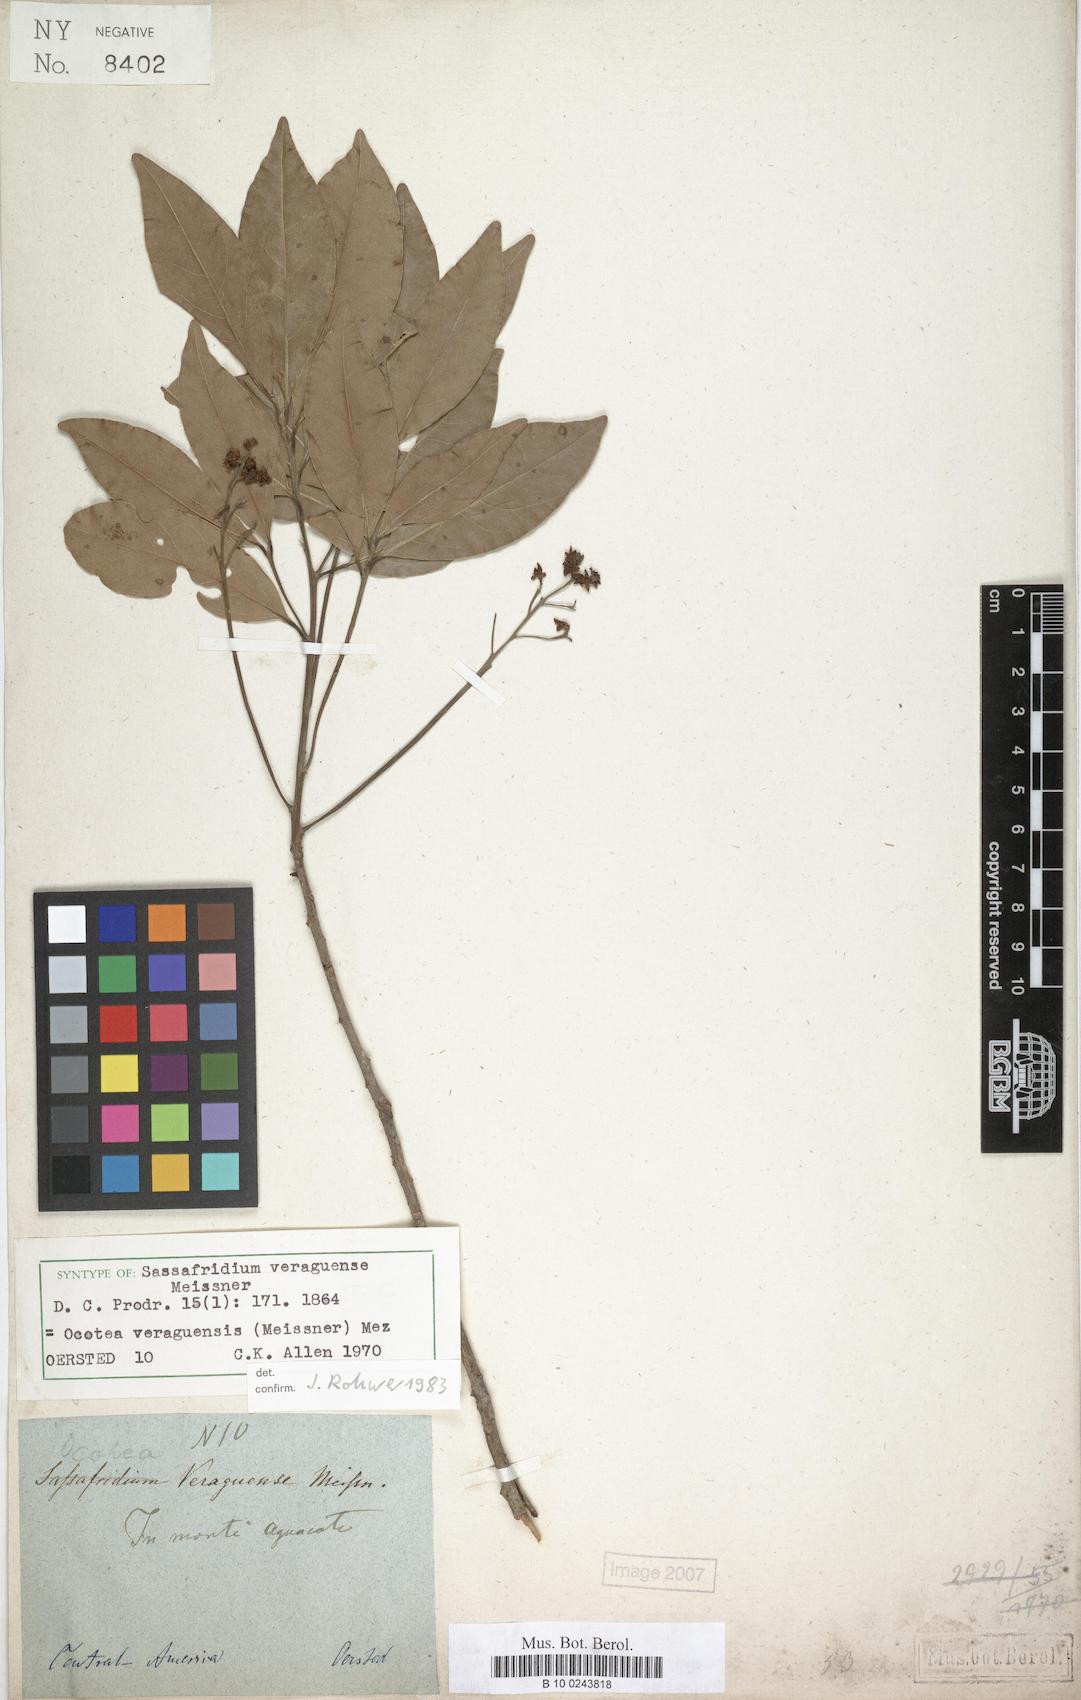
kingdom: Plantae
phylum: Tracheophyta
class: Magnoliopsida
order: Laurales
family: Lauraceae
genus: Mespilodaphne
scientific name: Mespilodaphne veraguensis
